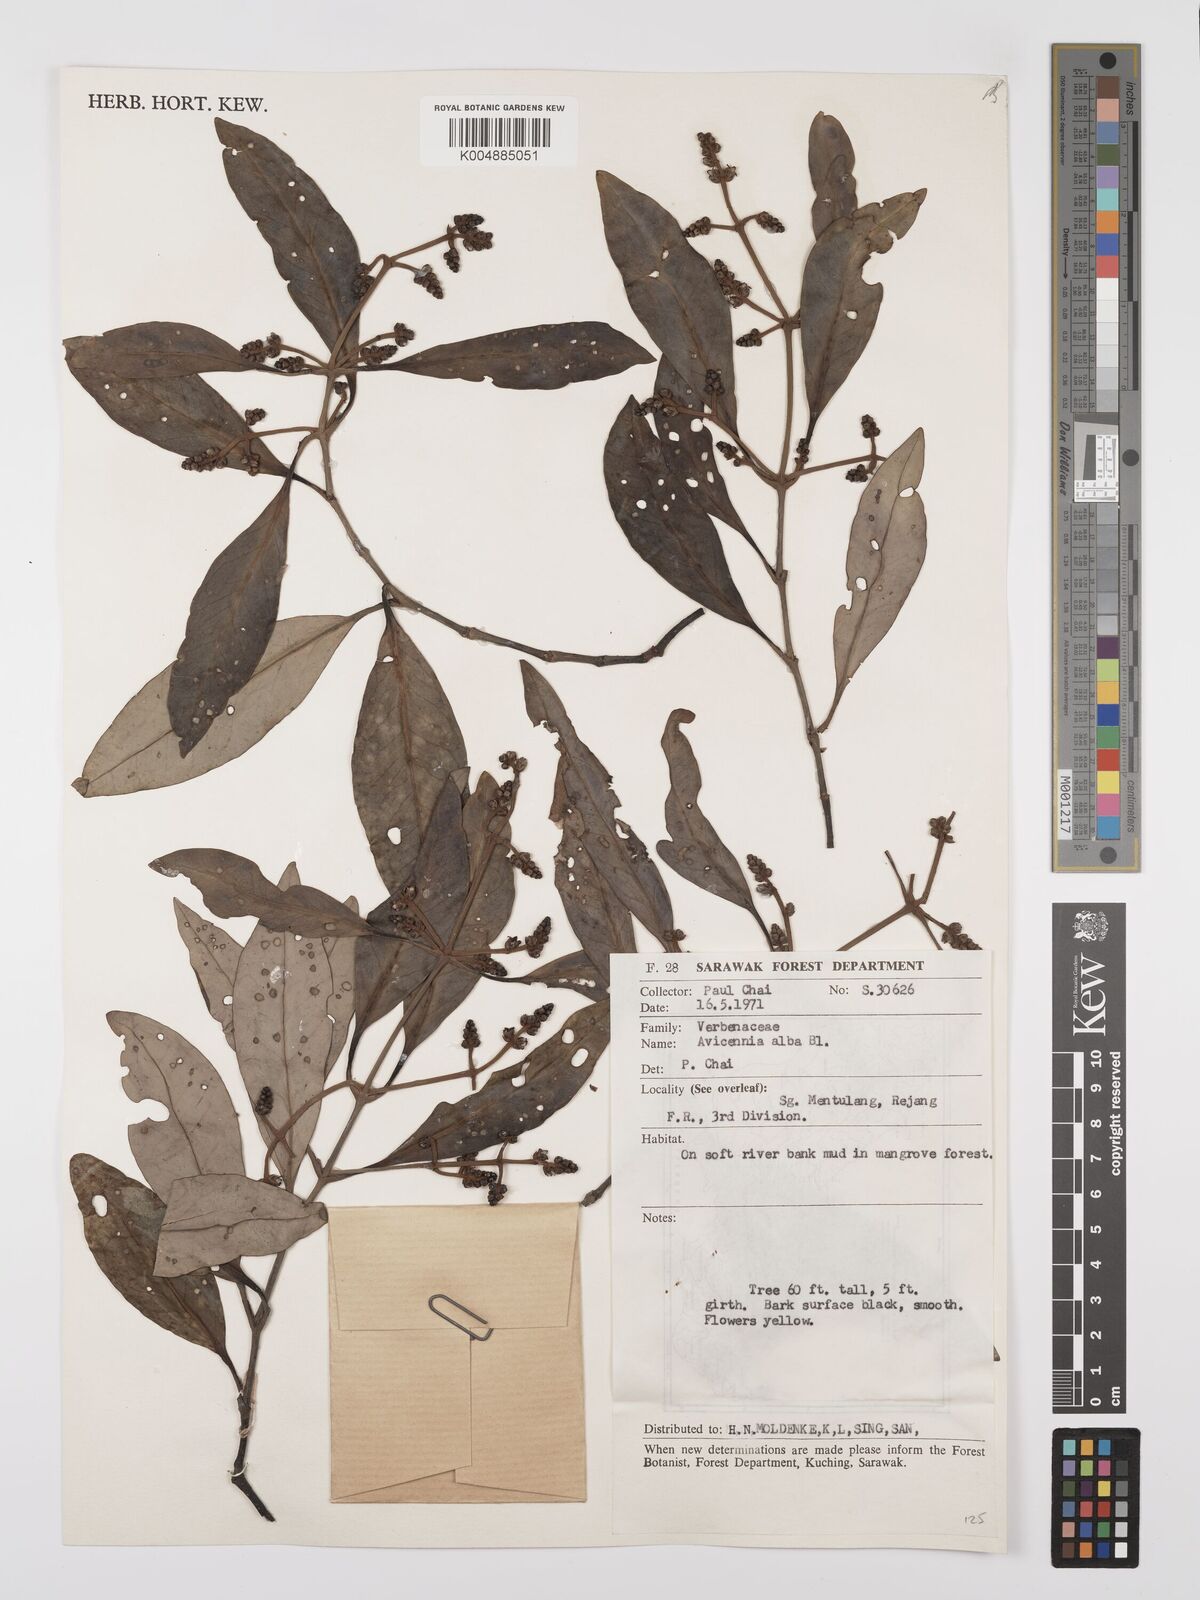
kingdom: Plantae
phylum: Tracheophyta
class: Magnoliopsida
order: Lamiales
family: Acanthaceae
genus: Avicennia
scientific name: Avicennia alba
